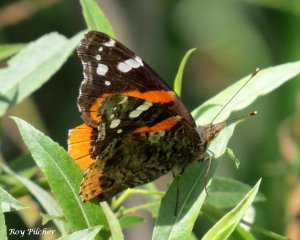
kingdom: Animalia
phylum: Arthropoda
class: Insecta
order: Lepidoptera
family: Nymphalidae
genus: Vanessa
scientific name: Vanessa atalanta
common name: Red Admiral
